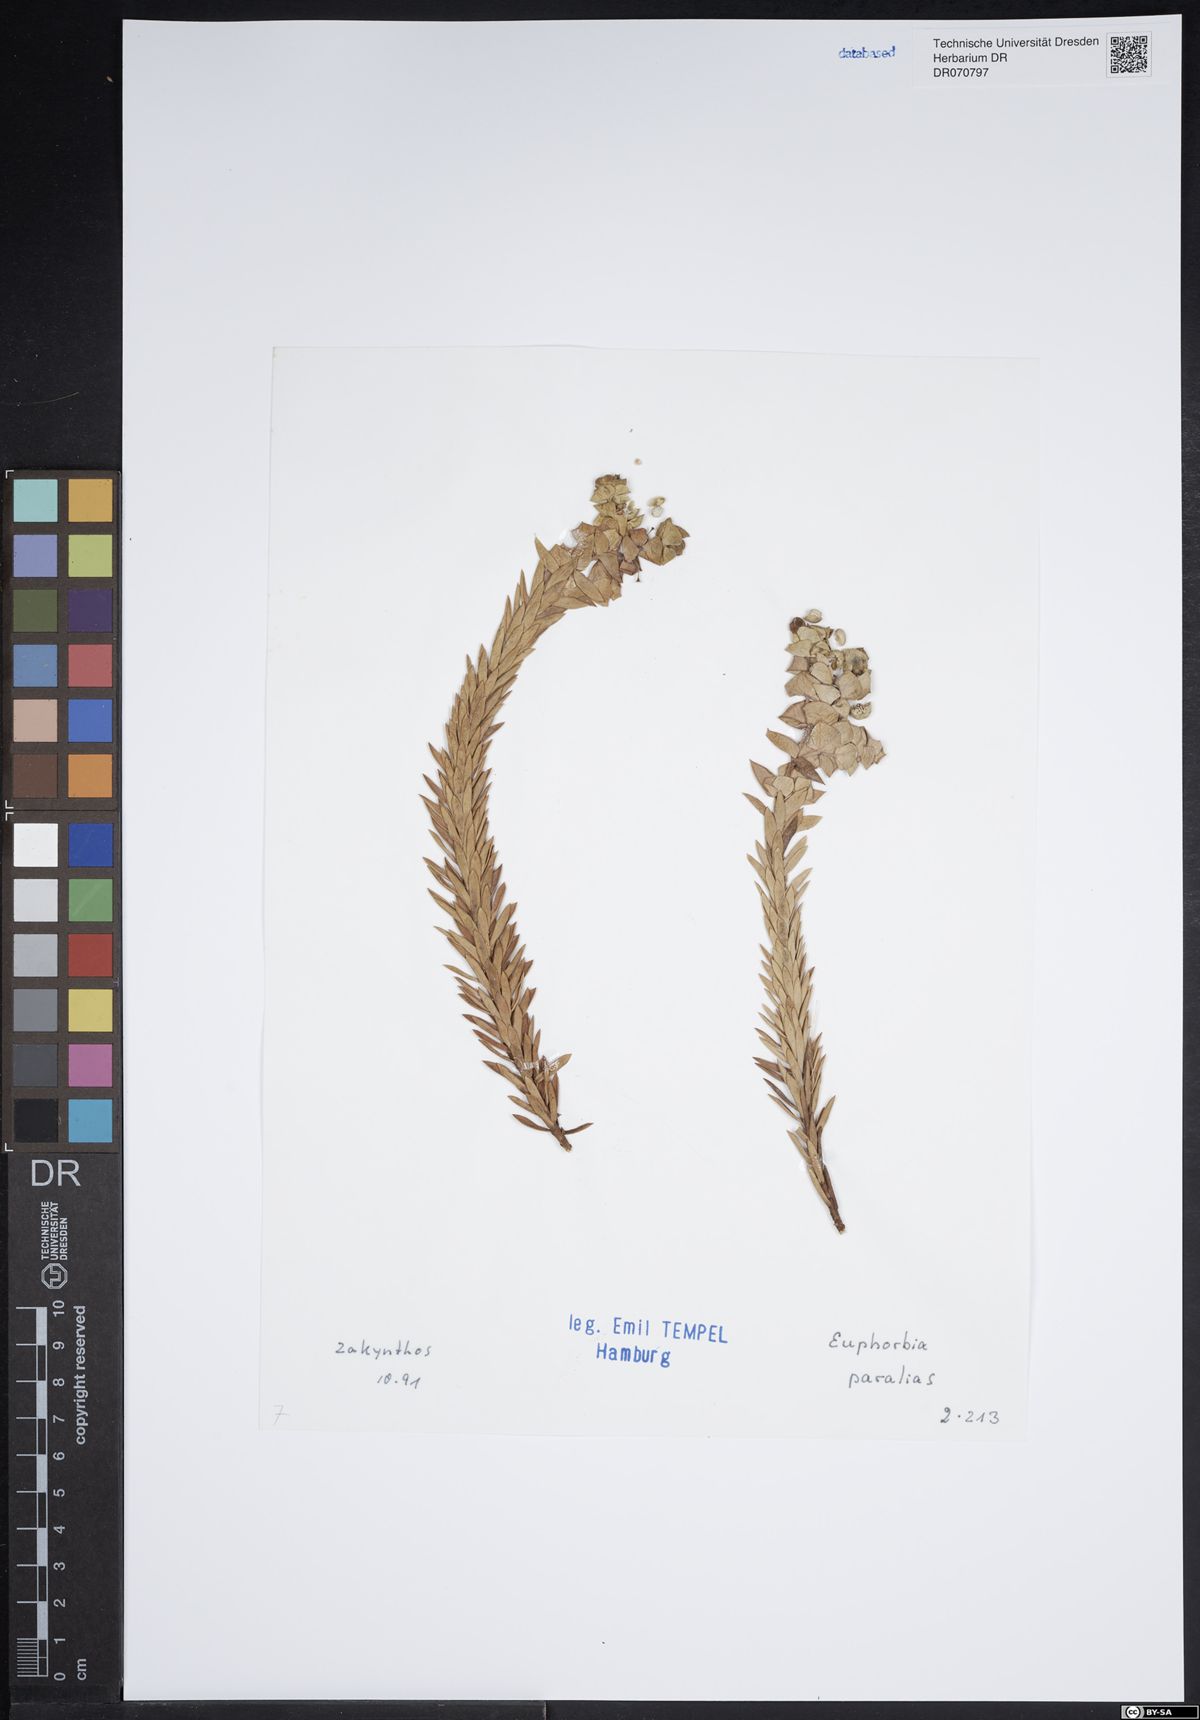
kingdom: Plantae
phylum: Tracheophyta
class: Magnoliopsida
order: Malpighiales
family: Euphorbiaceae
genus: Euphorbia
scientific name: Euphorbia paralias
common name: Sea spurge
